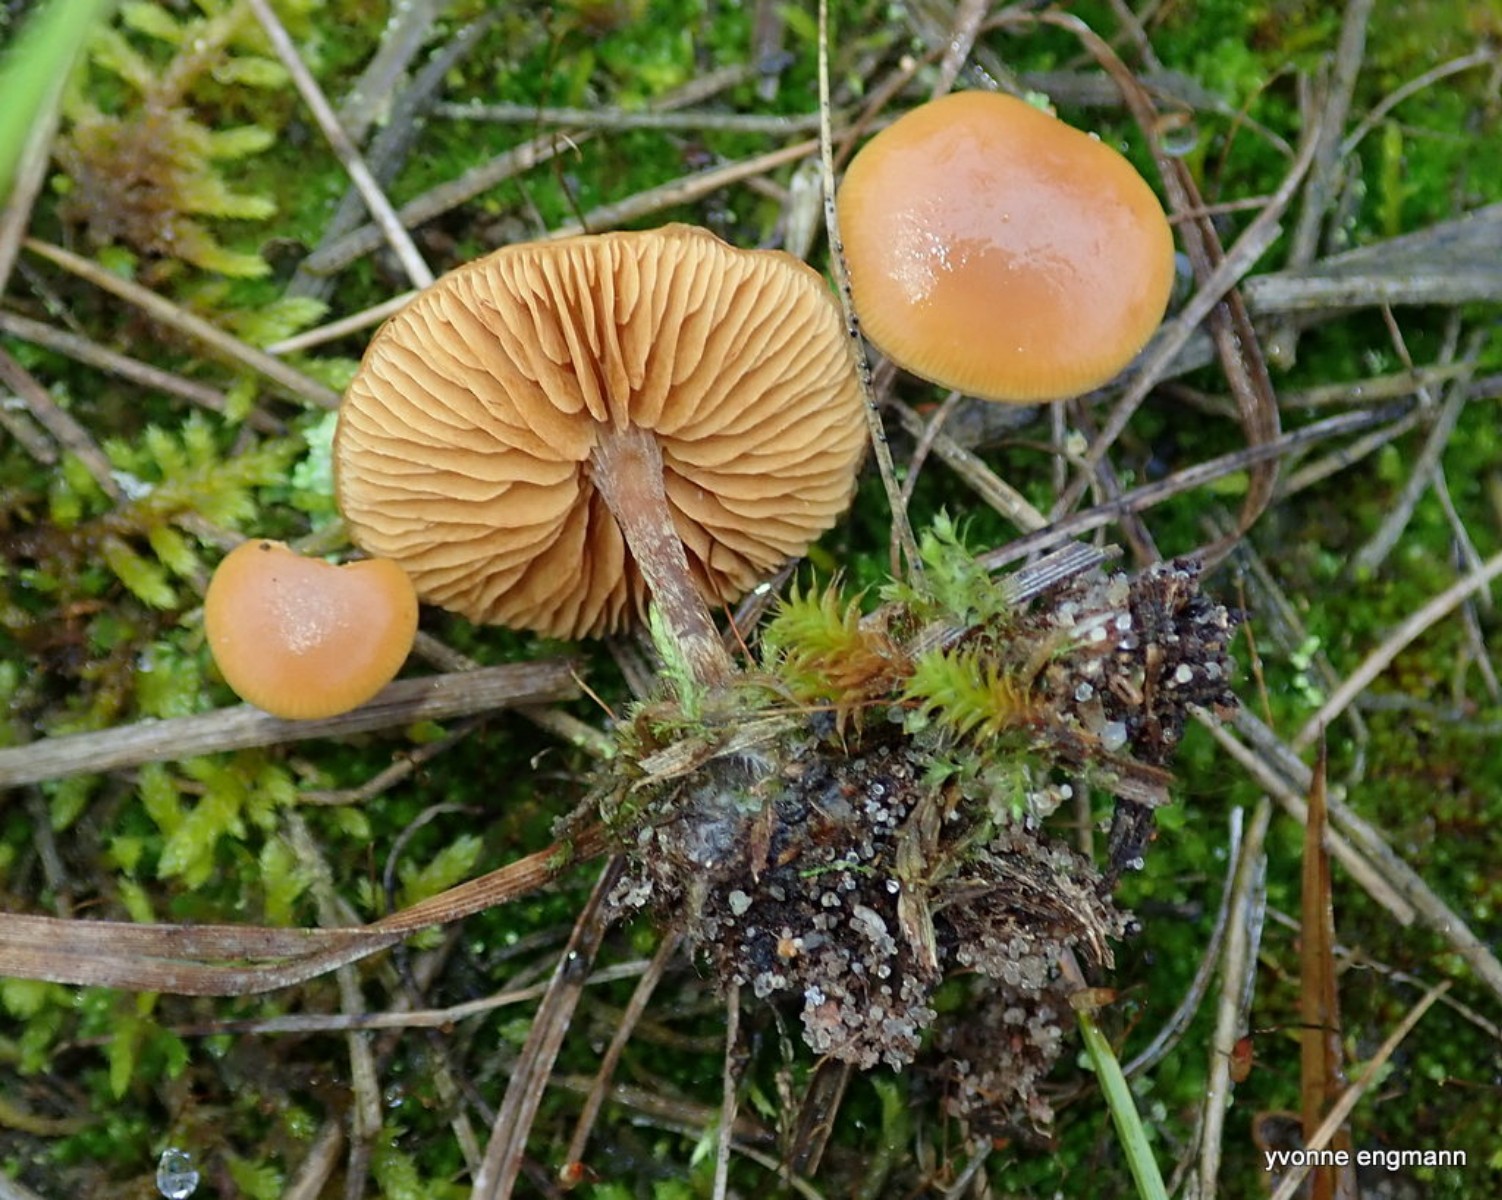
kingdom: Fungi
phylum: Basidiomycota
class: Agaricomycetes
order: Agaricales
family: Hymenogastraceae
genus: Galerina
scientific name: Galerina
